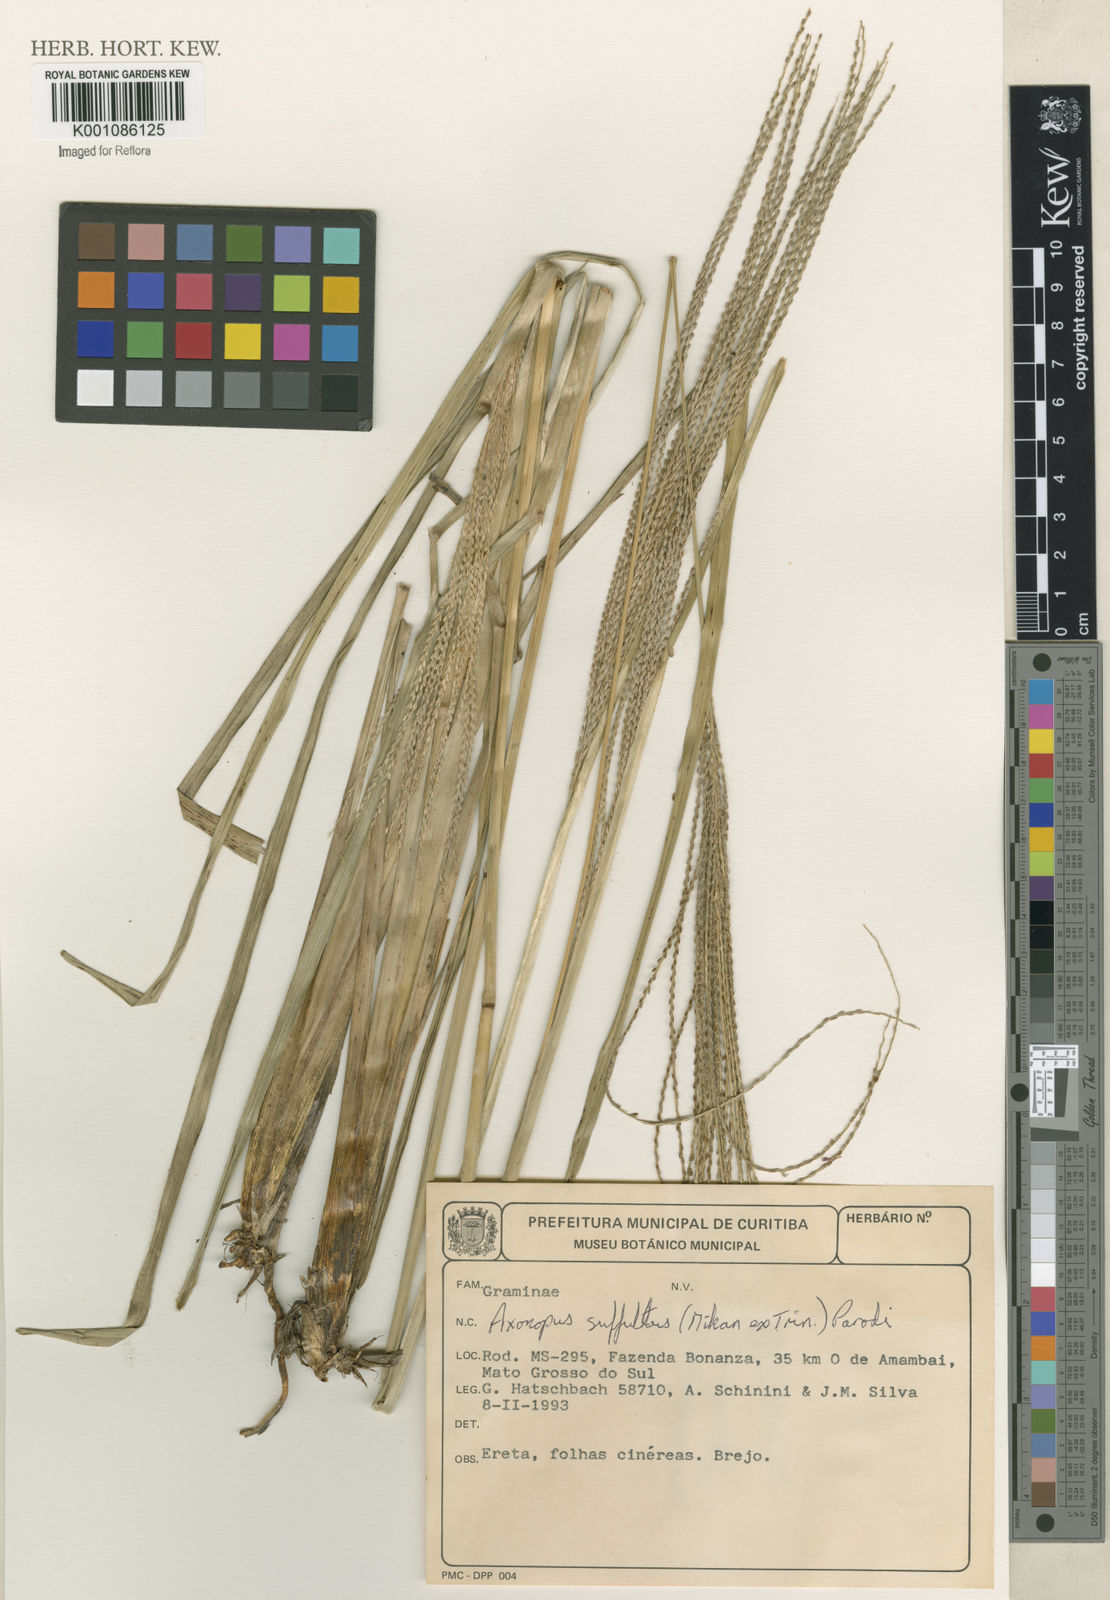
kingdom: Plantae
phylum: Tracheophyta
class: Liliopsida
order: Poales
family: Poaceae
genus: Axonopus
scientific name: Axonopus suffultus
